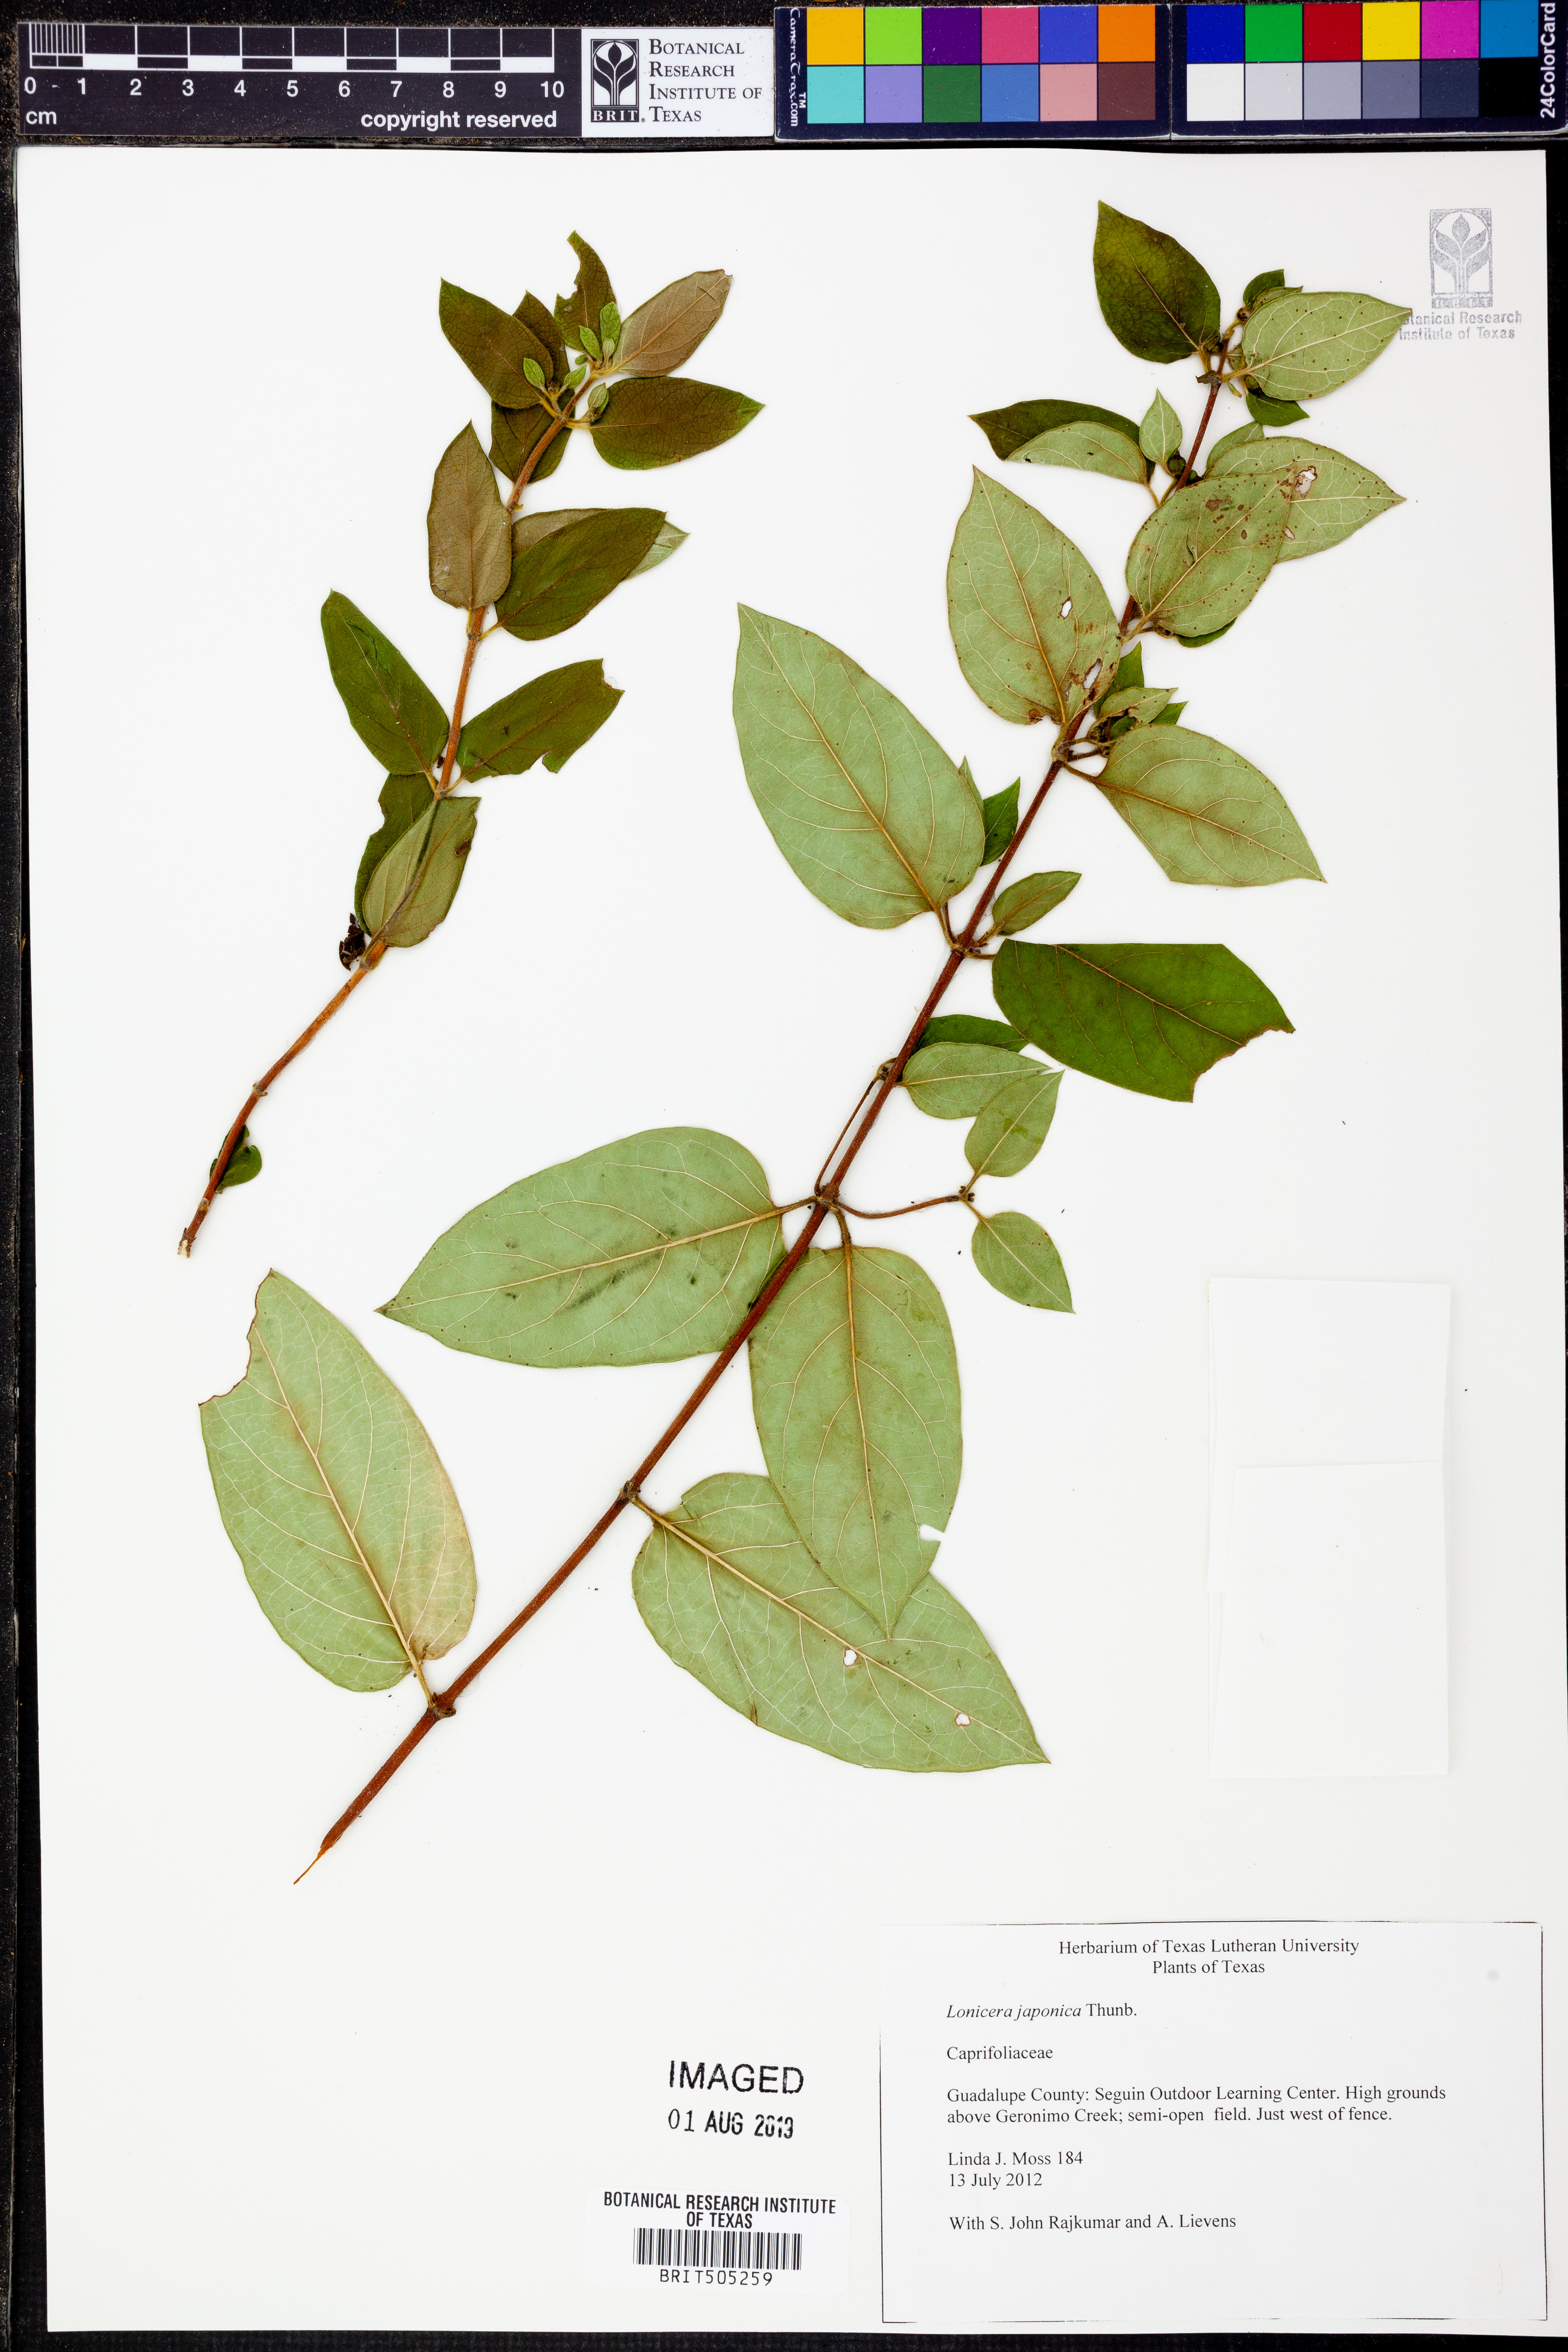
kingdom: Plantae
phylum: Tracheophyta
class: Magnoliopsida
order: Dipsacales
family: Caprifoliaceae
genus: Lonicera
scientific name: Lonicera japonica
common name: Japanese honeysuckle
